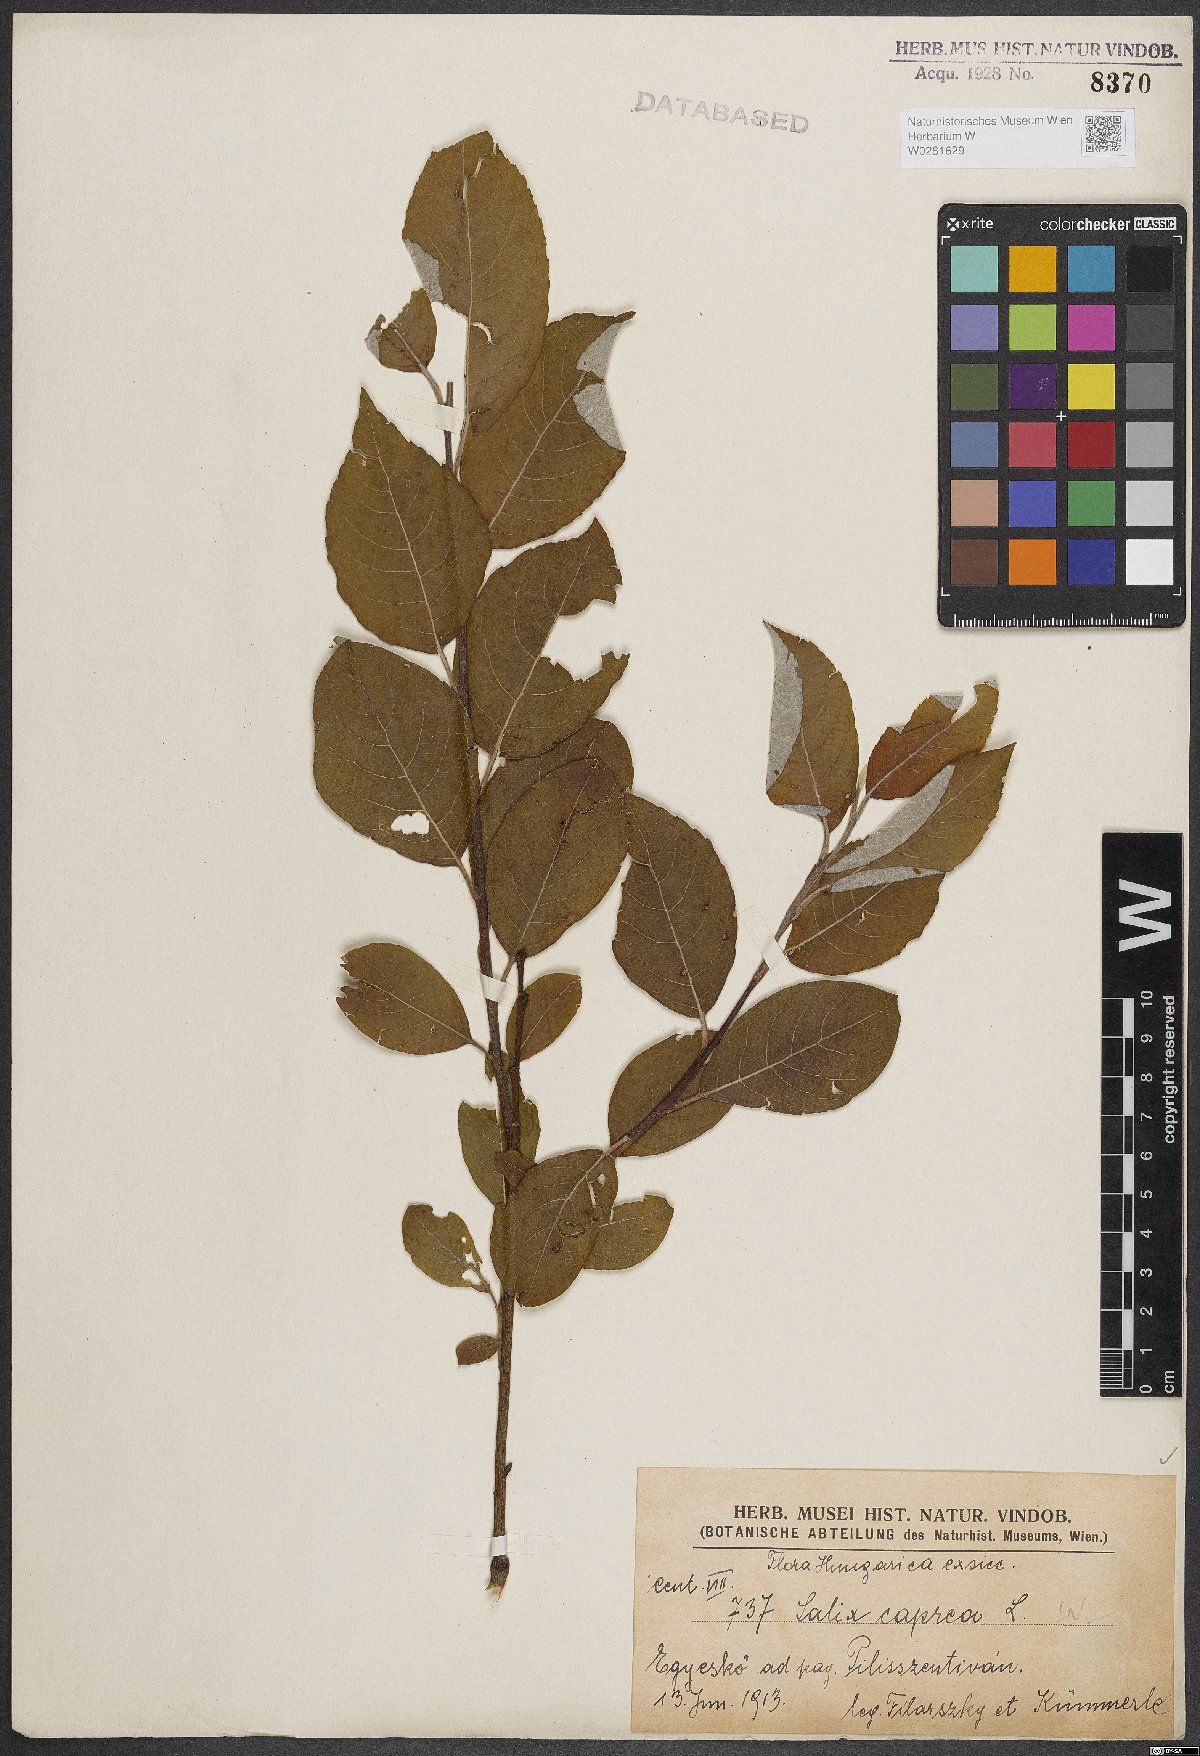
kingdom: Plantae
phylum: Tracheophyta
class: Magnoliopsida
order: Malpighiales
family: Salicaceae
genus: Salix
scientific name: Salix caprea
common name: Goat willow
